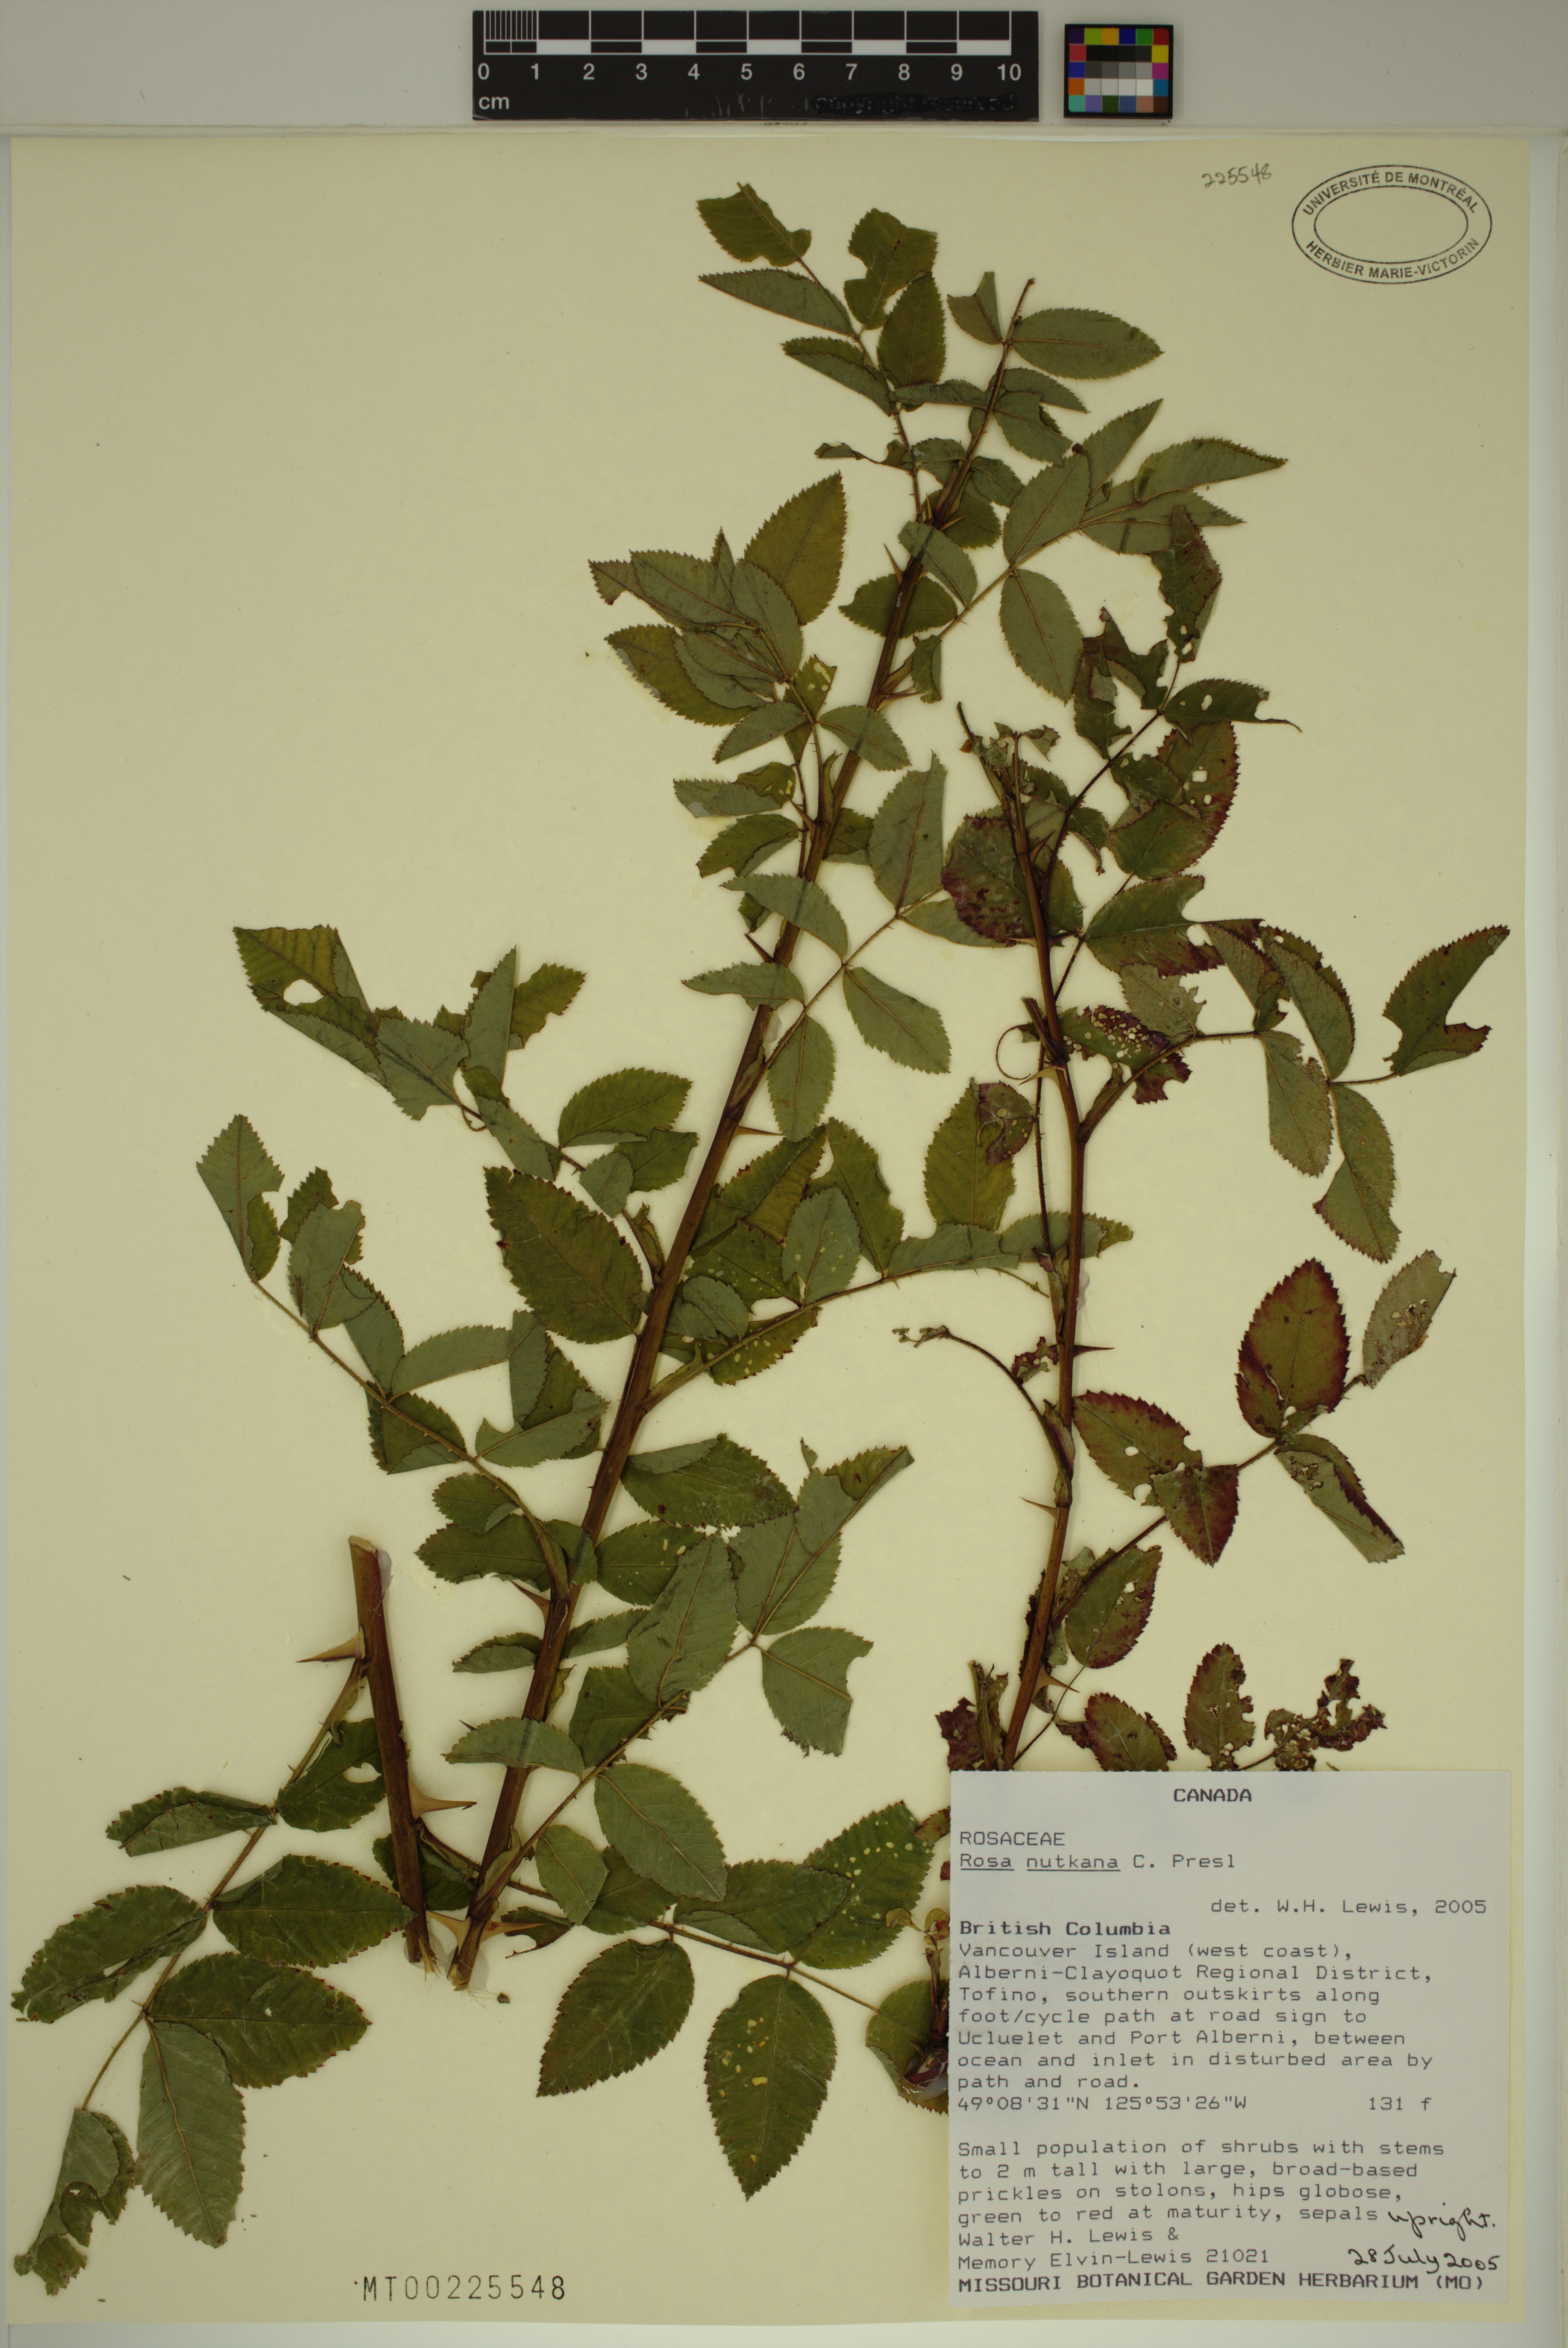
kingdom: Plantae
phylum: Tracheophyta
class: Magnoliopsida
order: Rosales
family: Rosaceae
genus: Rosa
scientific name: Rosa nutkana
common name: Nootka rose
